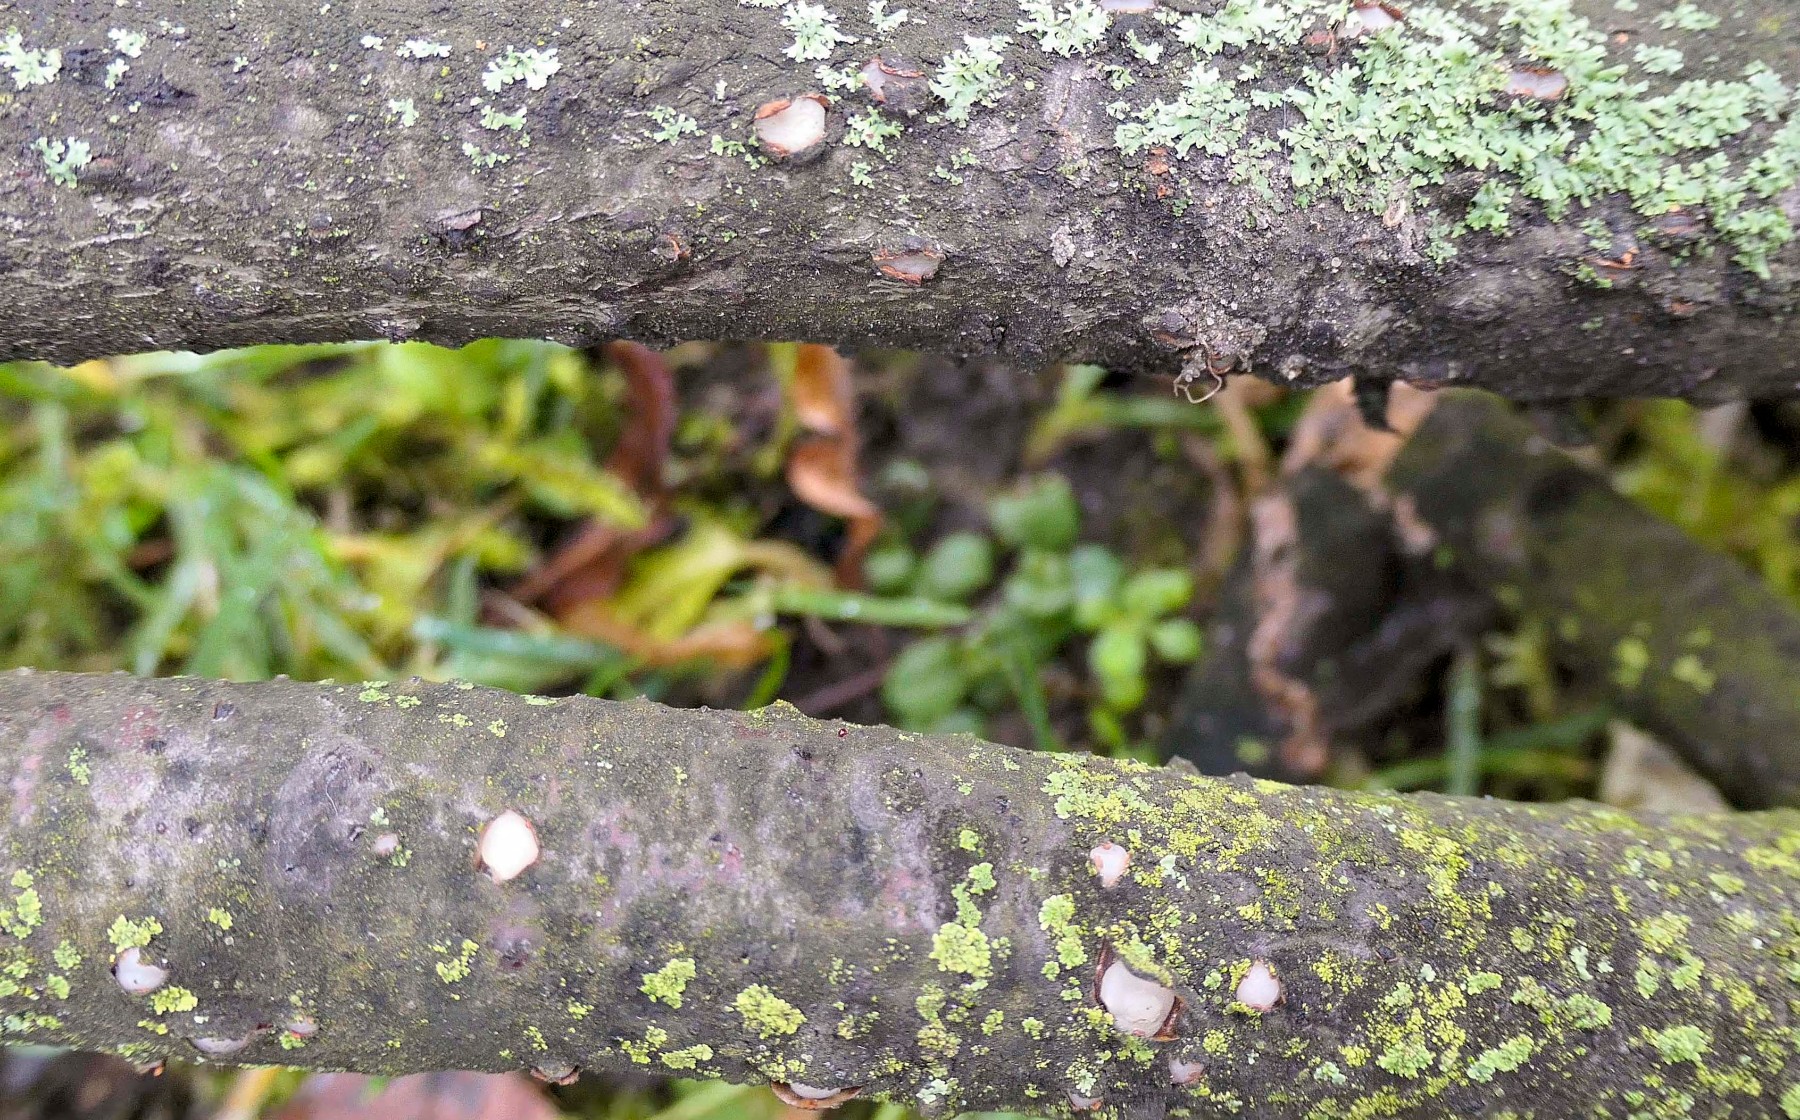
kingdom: Fungi
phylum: Basidiomycota
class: Pucciniomycetes
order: Platygloeales
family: Platygloeaceae
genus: Platygloea
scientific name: Platygloea disciformis
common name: linde-slimklat
